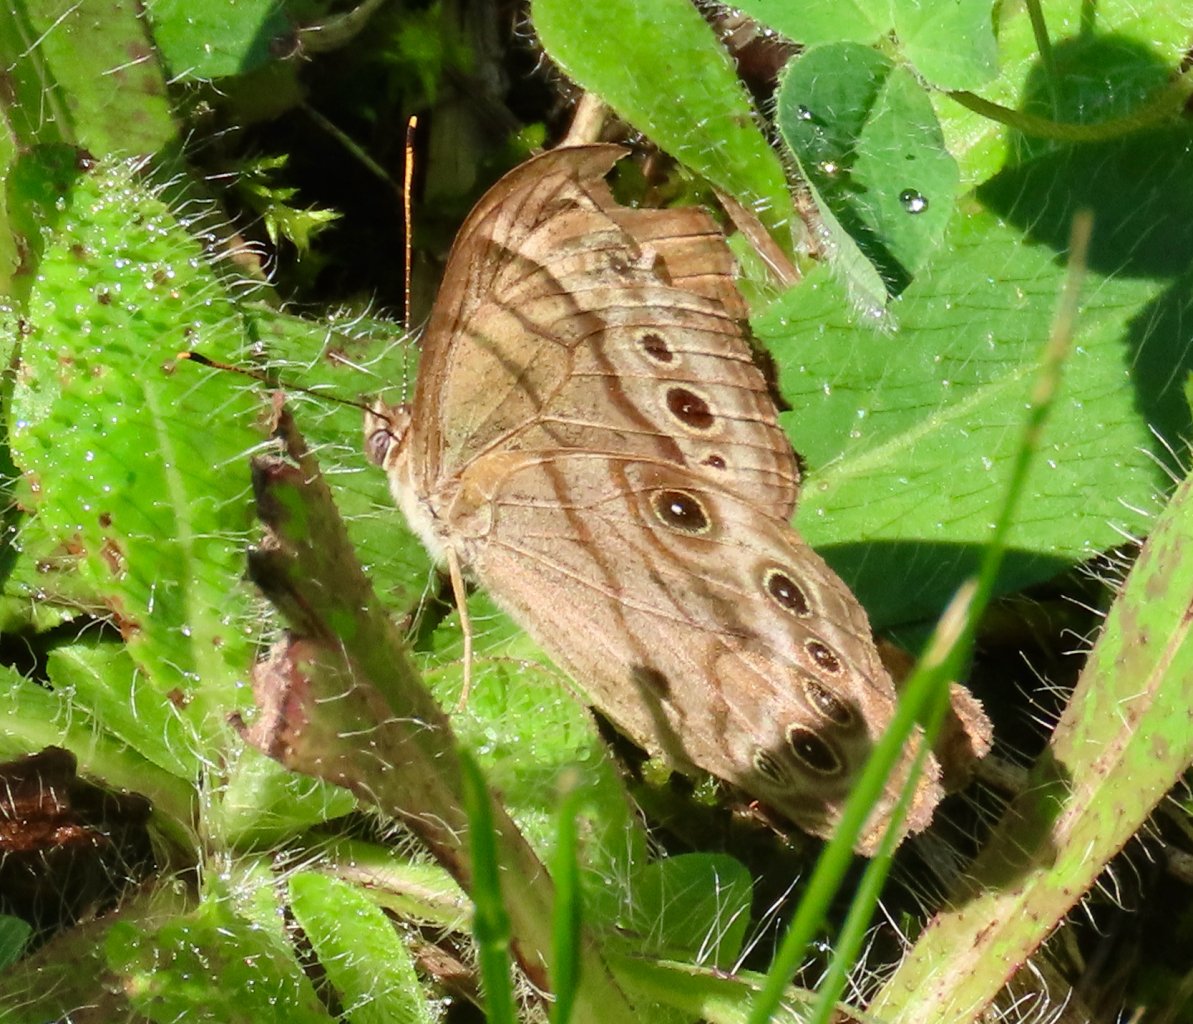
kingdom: Animalia
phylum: Arthropoda
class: Insecta
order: Lepidoptera
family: Nymphalidae
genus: Lethe
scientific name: Lethe anthedon
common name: Northern Pearly-Eye
